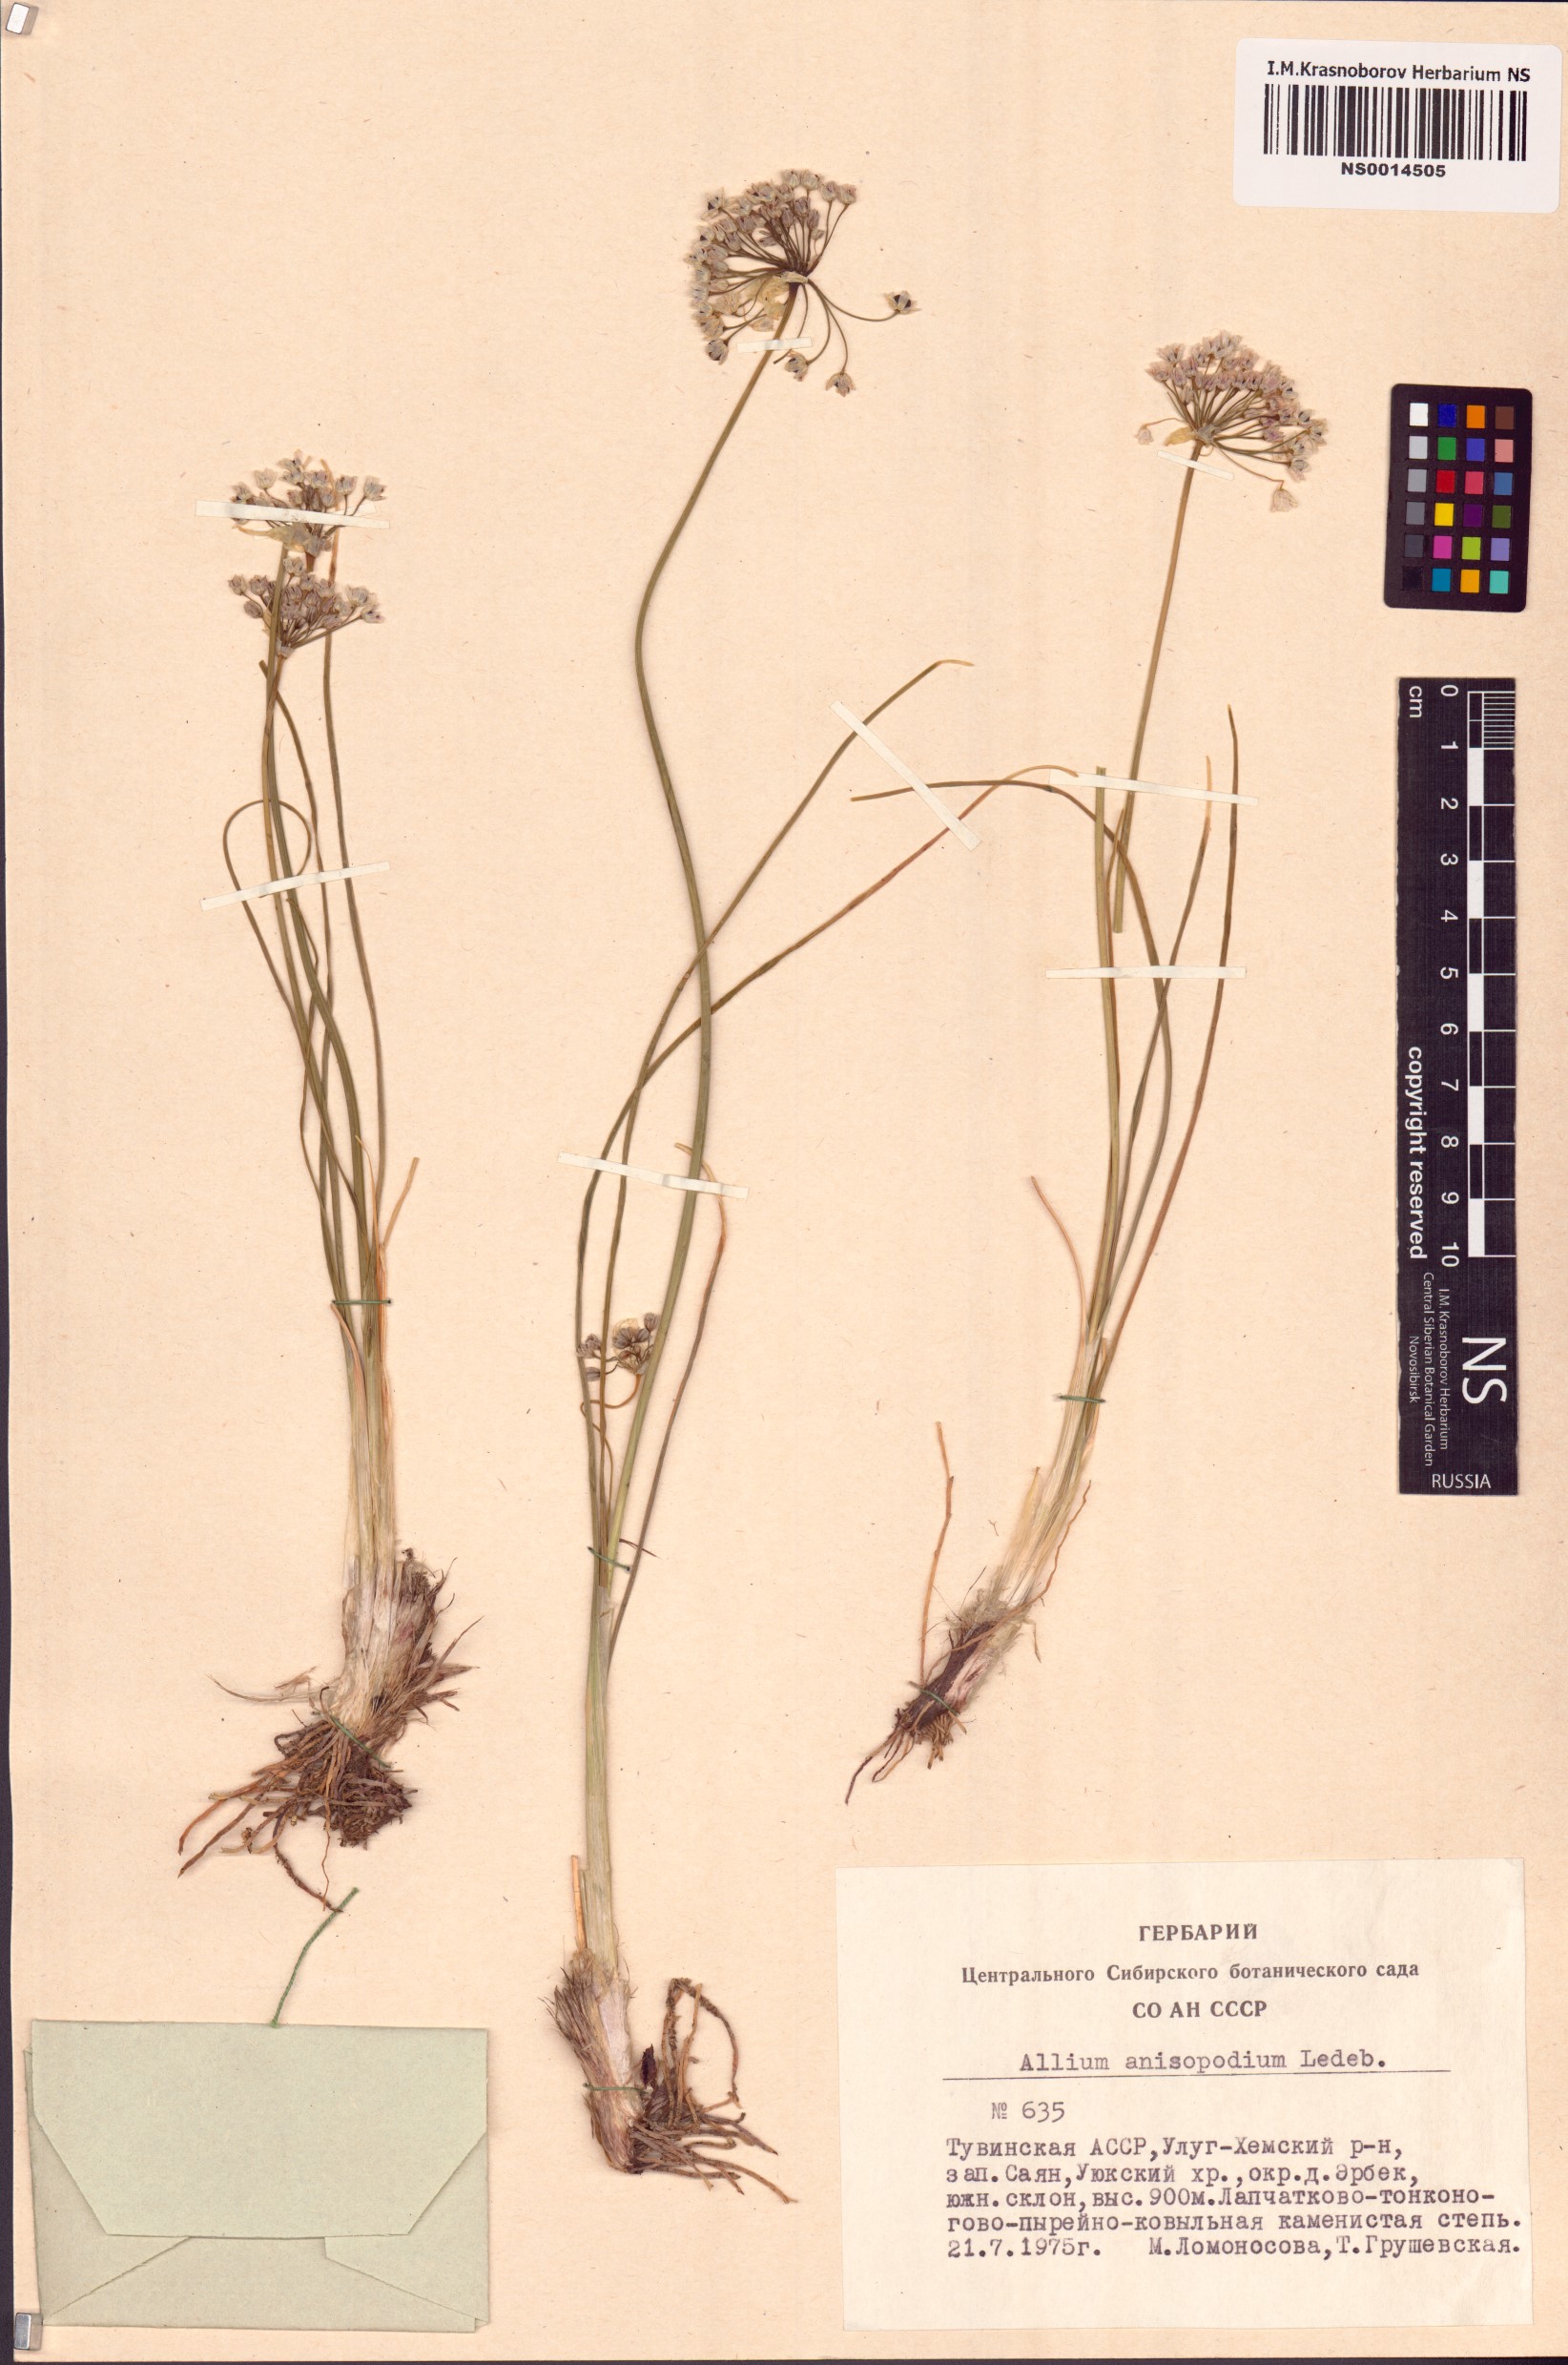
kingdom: Plantae
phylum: Tracheophyta
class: Liliopsida
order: Asparagales
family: Amaryllidaceae
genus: Allium
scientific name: Allium anisopodium
